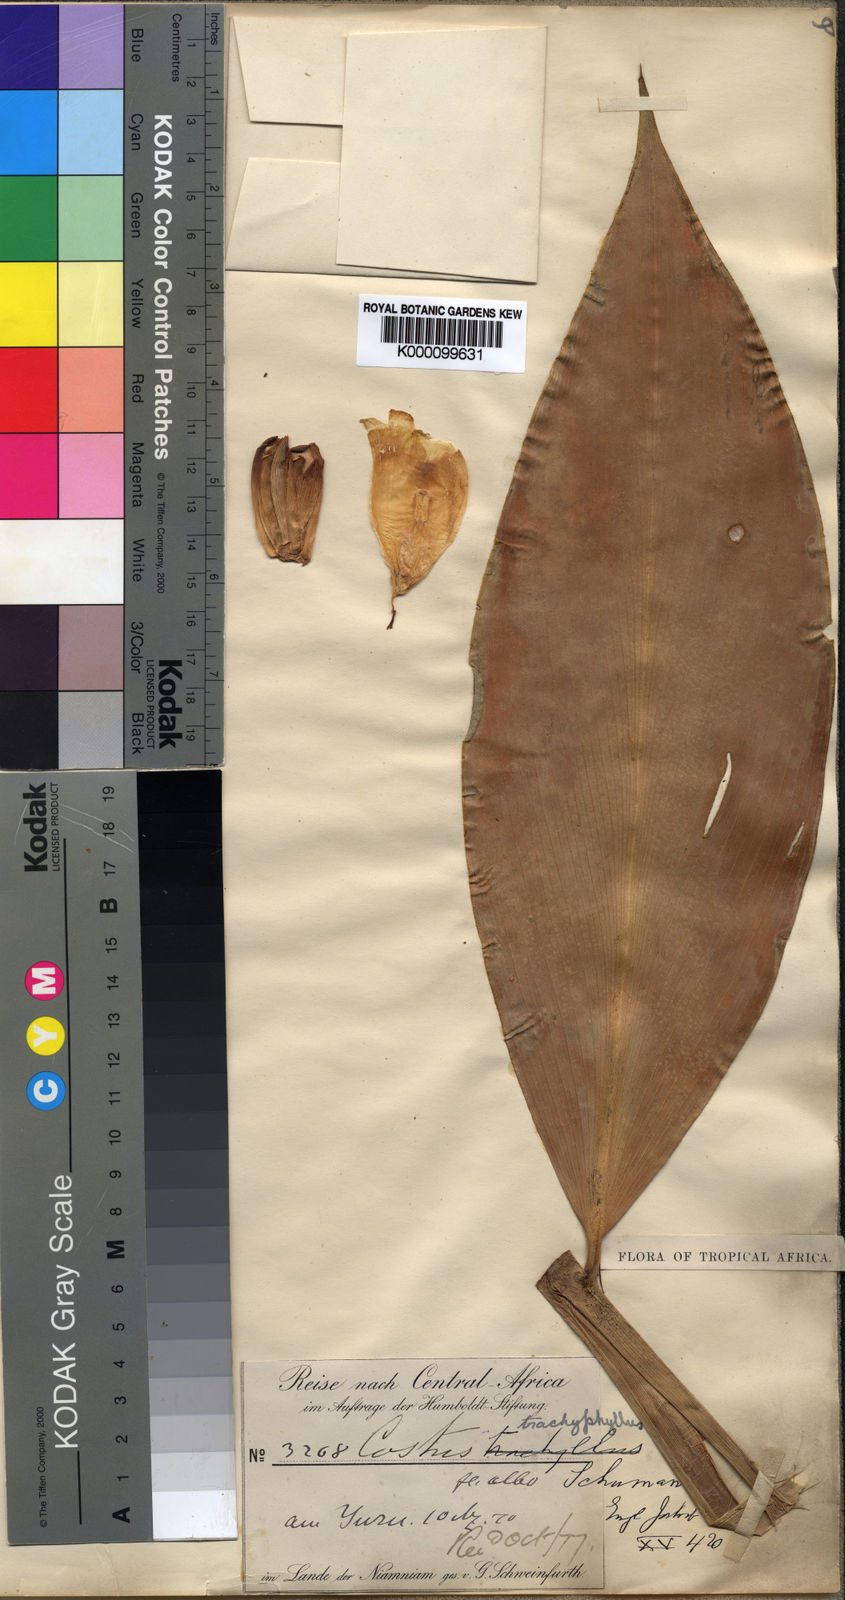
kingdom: Plantae
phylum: Tracheophyta
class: Liliopsida
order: Zingiberales
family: Costaceae
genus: Costus
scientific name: Costus dubius
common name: Costus
